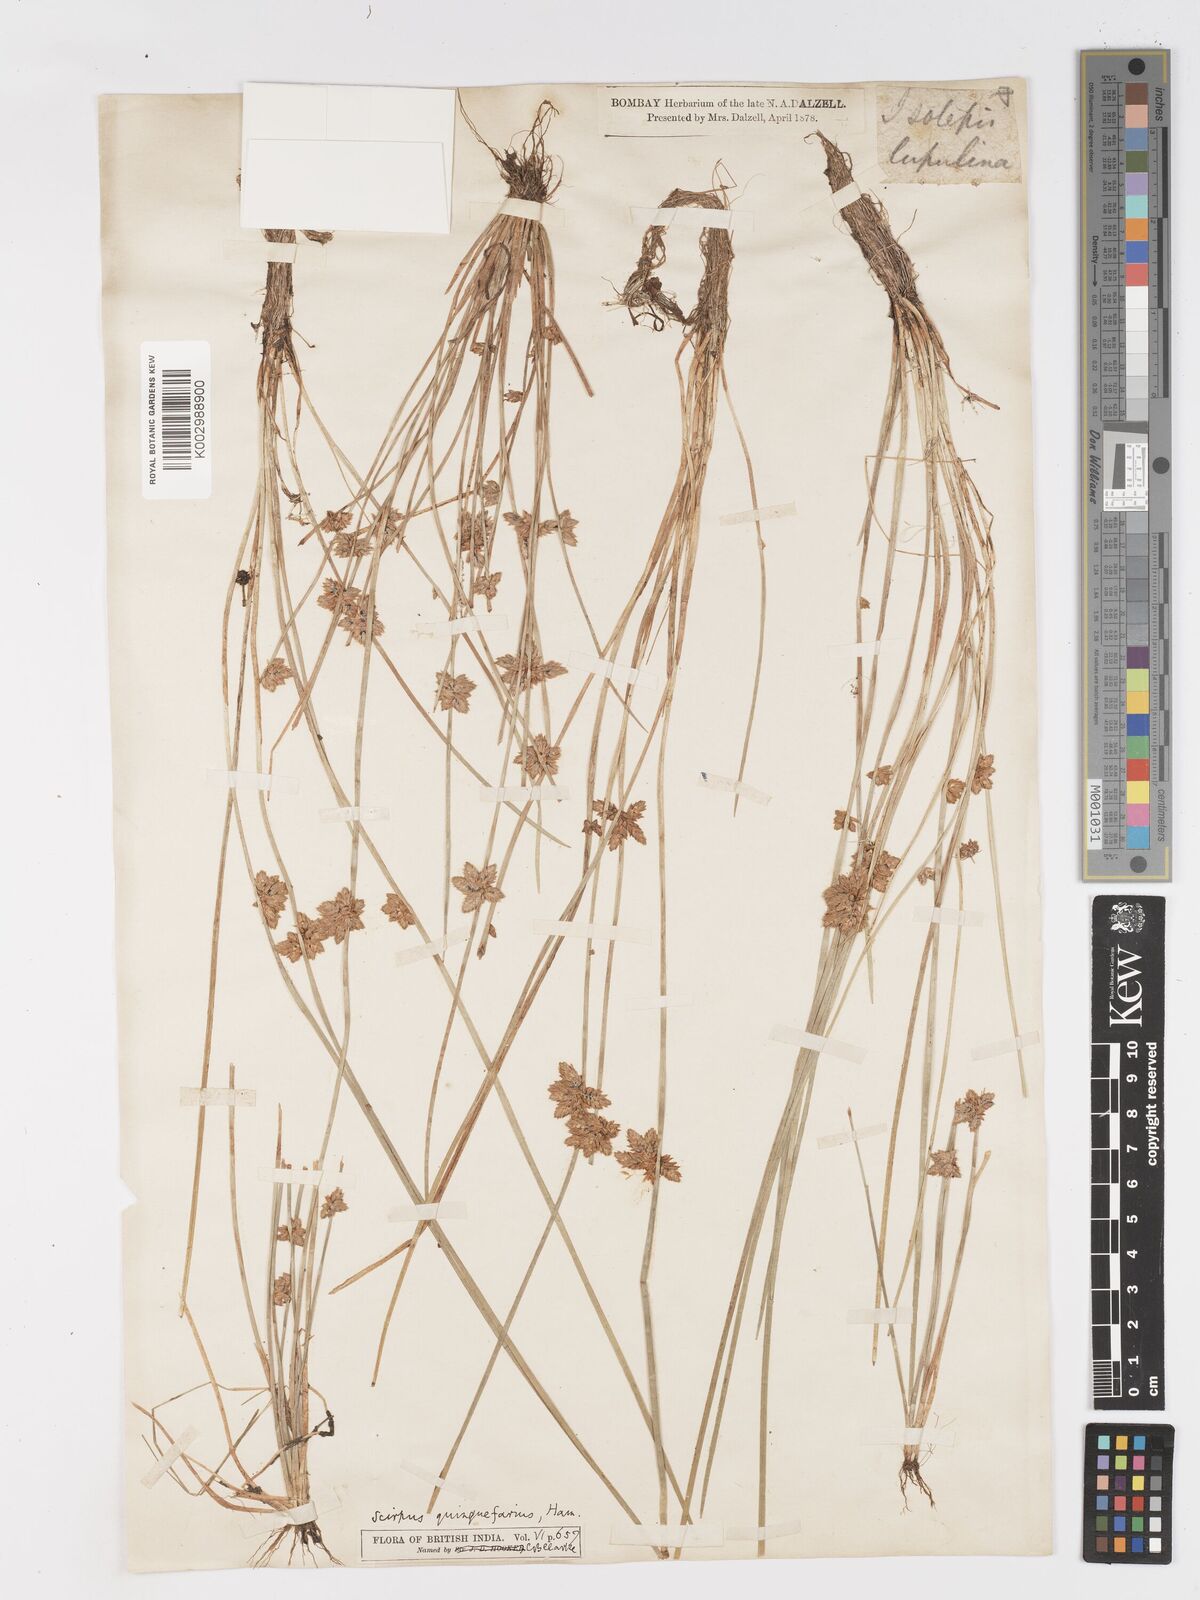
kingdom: Plantae
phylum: Tracheophyta
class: Liliopsida
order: Poales
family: Cyperaceae
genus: Schoenoplectiella
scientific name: Schoenoplectiella roylei
